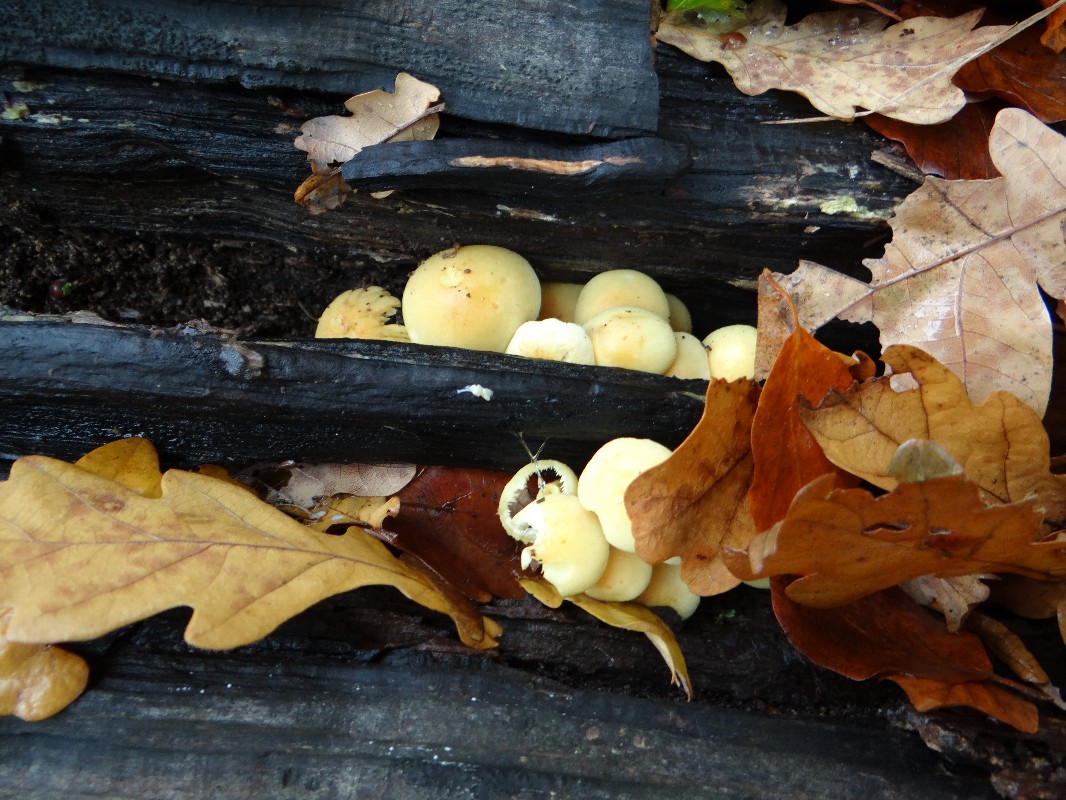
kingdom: Fungi
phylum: Basidiomycota
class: Agaricomycetes
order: Agaricales
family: Strophariaceae
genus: Hypholoma
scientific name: Hypholoma fasciculare
